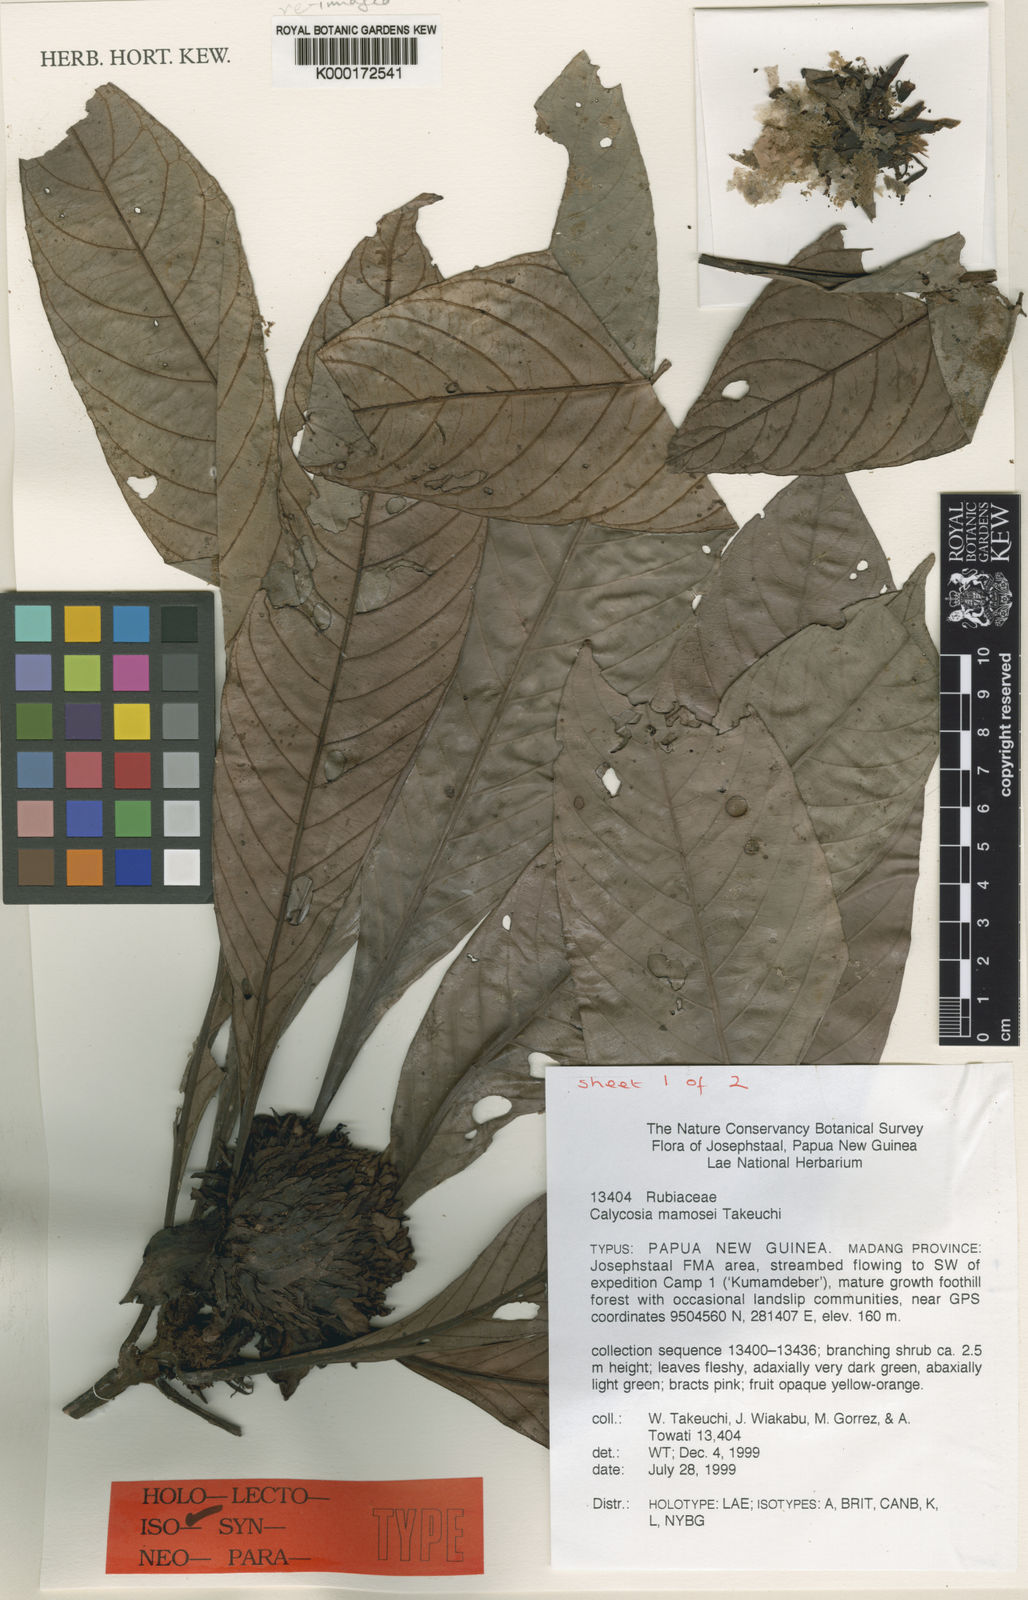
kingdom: Plantae
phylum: Tracheophyta
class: Magnoliopsida
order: Gentianales
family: Rubiaceae
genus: Calycosia
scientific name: Calycosia mamosei
